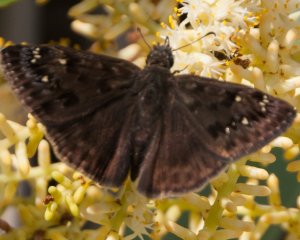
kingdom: Animalia
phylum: Arthropoda
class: Insecta
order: Lepidoptera
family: Hesperiidae
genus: Gesta
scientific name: Gesta
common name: Horace's Duskywing
